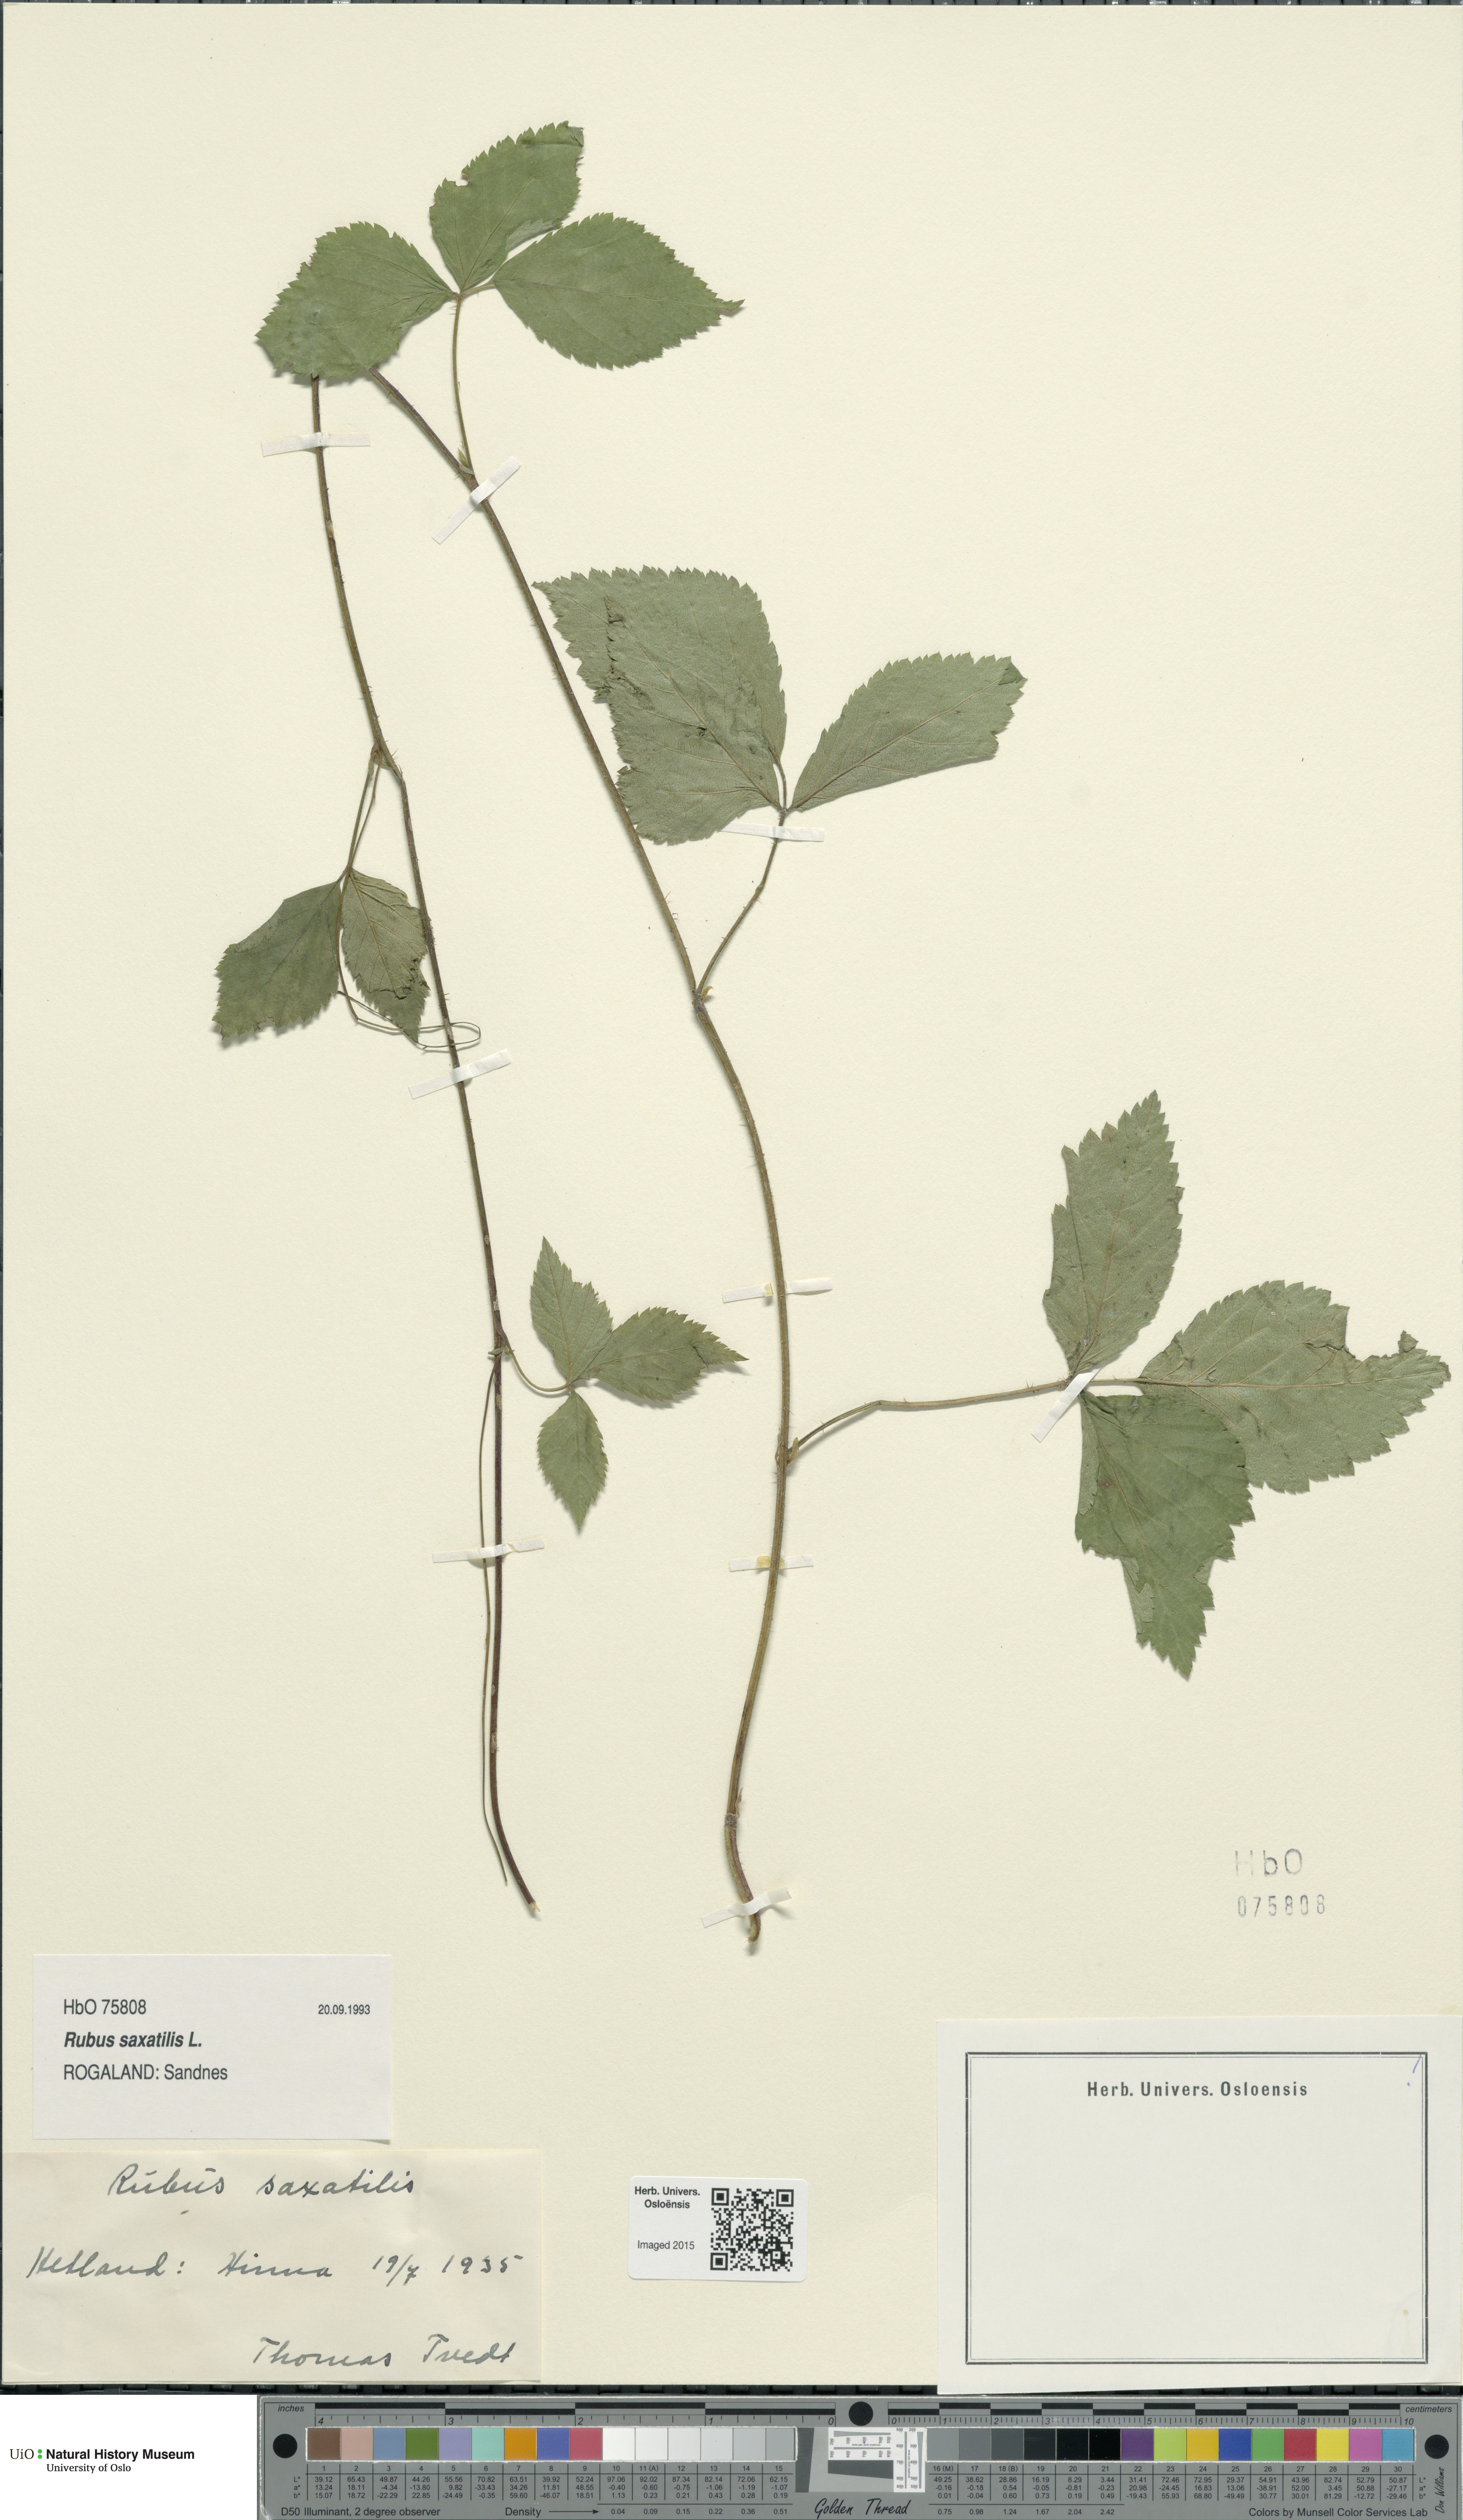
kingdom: Plantae
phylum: Tracheophyta
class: Magnoliopsida
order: Rosales
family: Rosaceae
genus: Rubus
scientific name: Rubus saxatilis
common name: Stone bramble
